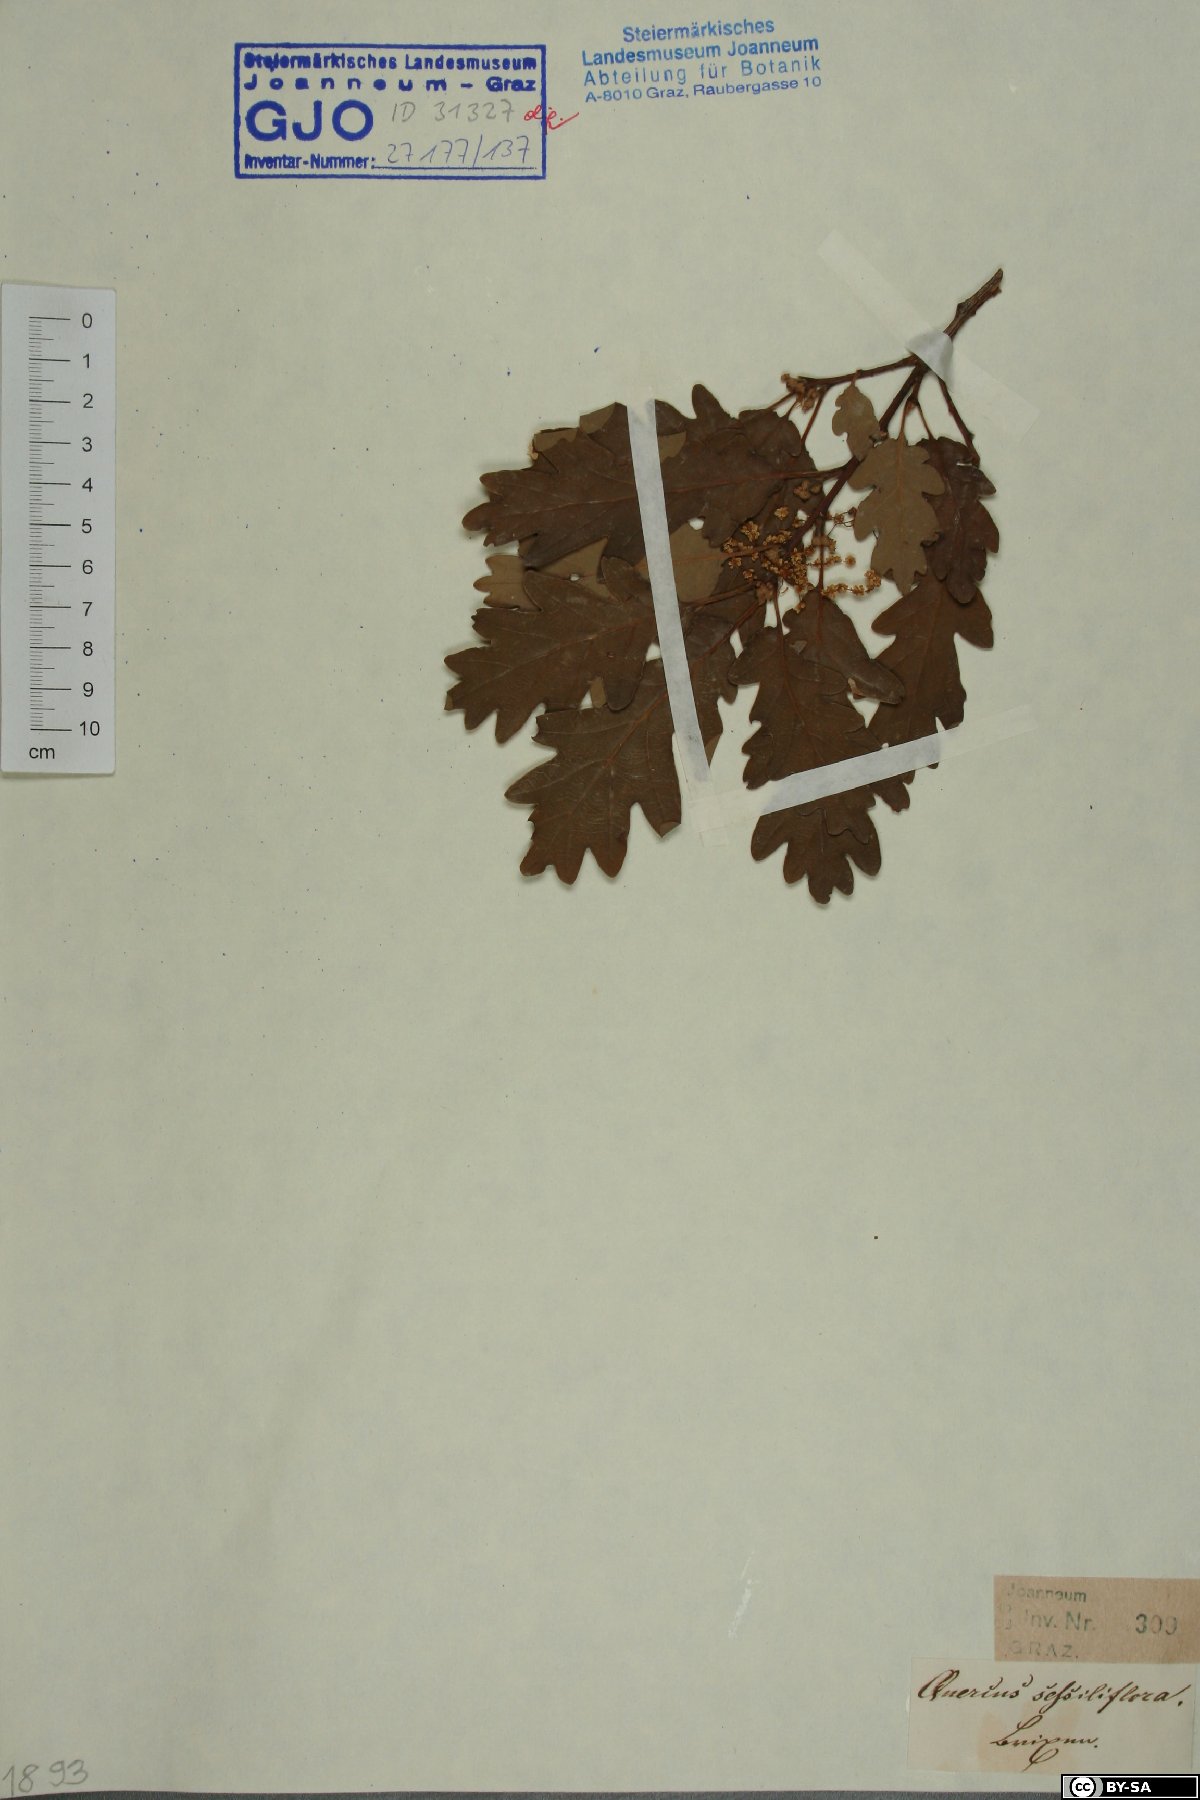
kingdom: Plantae
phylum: Tracheophyta
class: Magnoliopsida
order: Fagales
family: Fagaceae
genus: Quercus
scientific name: Quercus petraea
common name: Sessile oak
